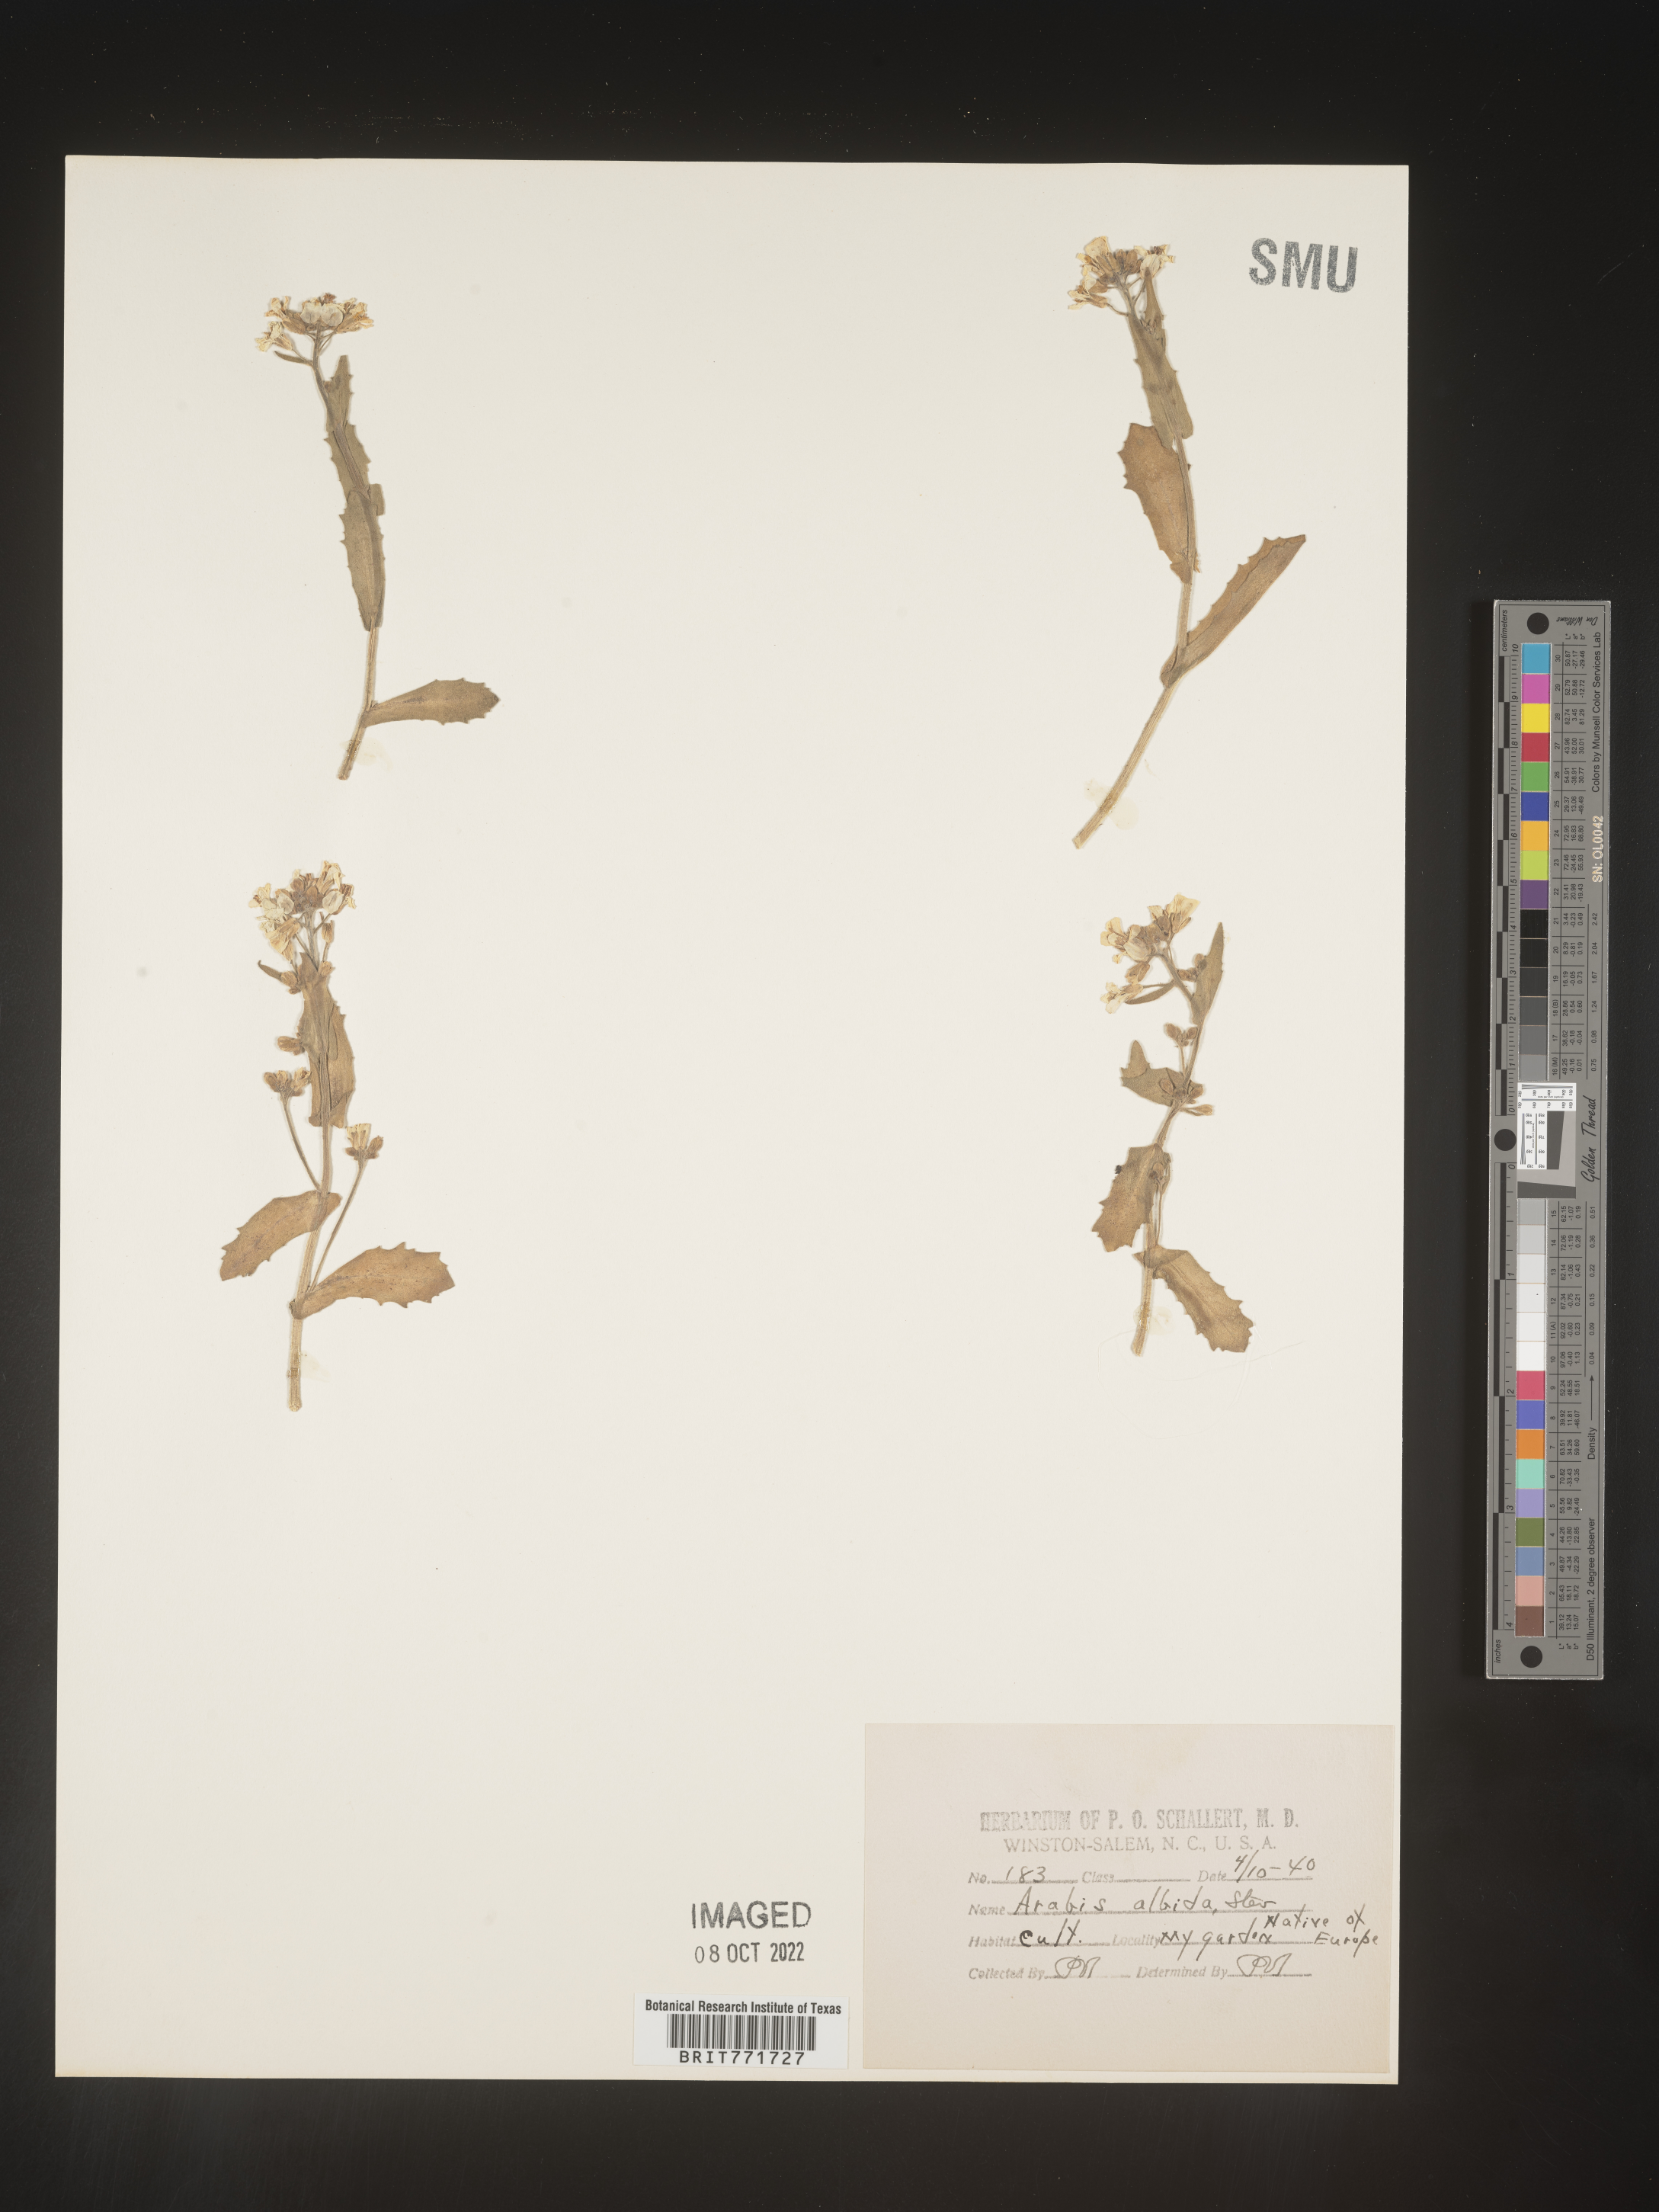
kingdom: Plantae
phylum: Tracheophyta
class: Magnoliopsida
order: Brassicales
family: Brassicaceae
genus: Arabis
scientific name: Arabis
